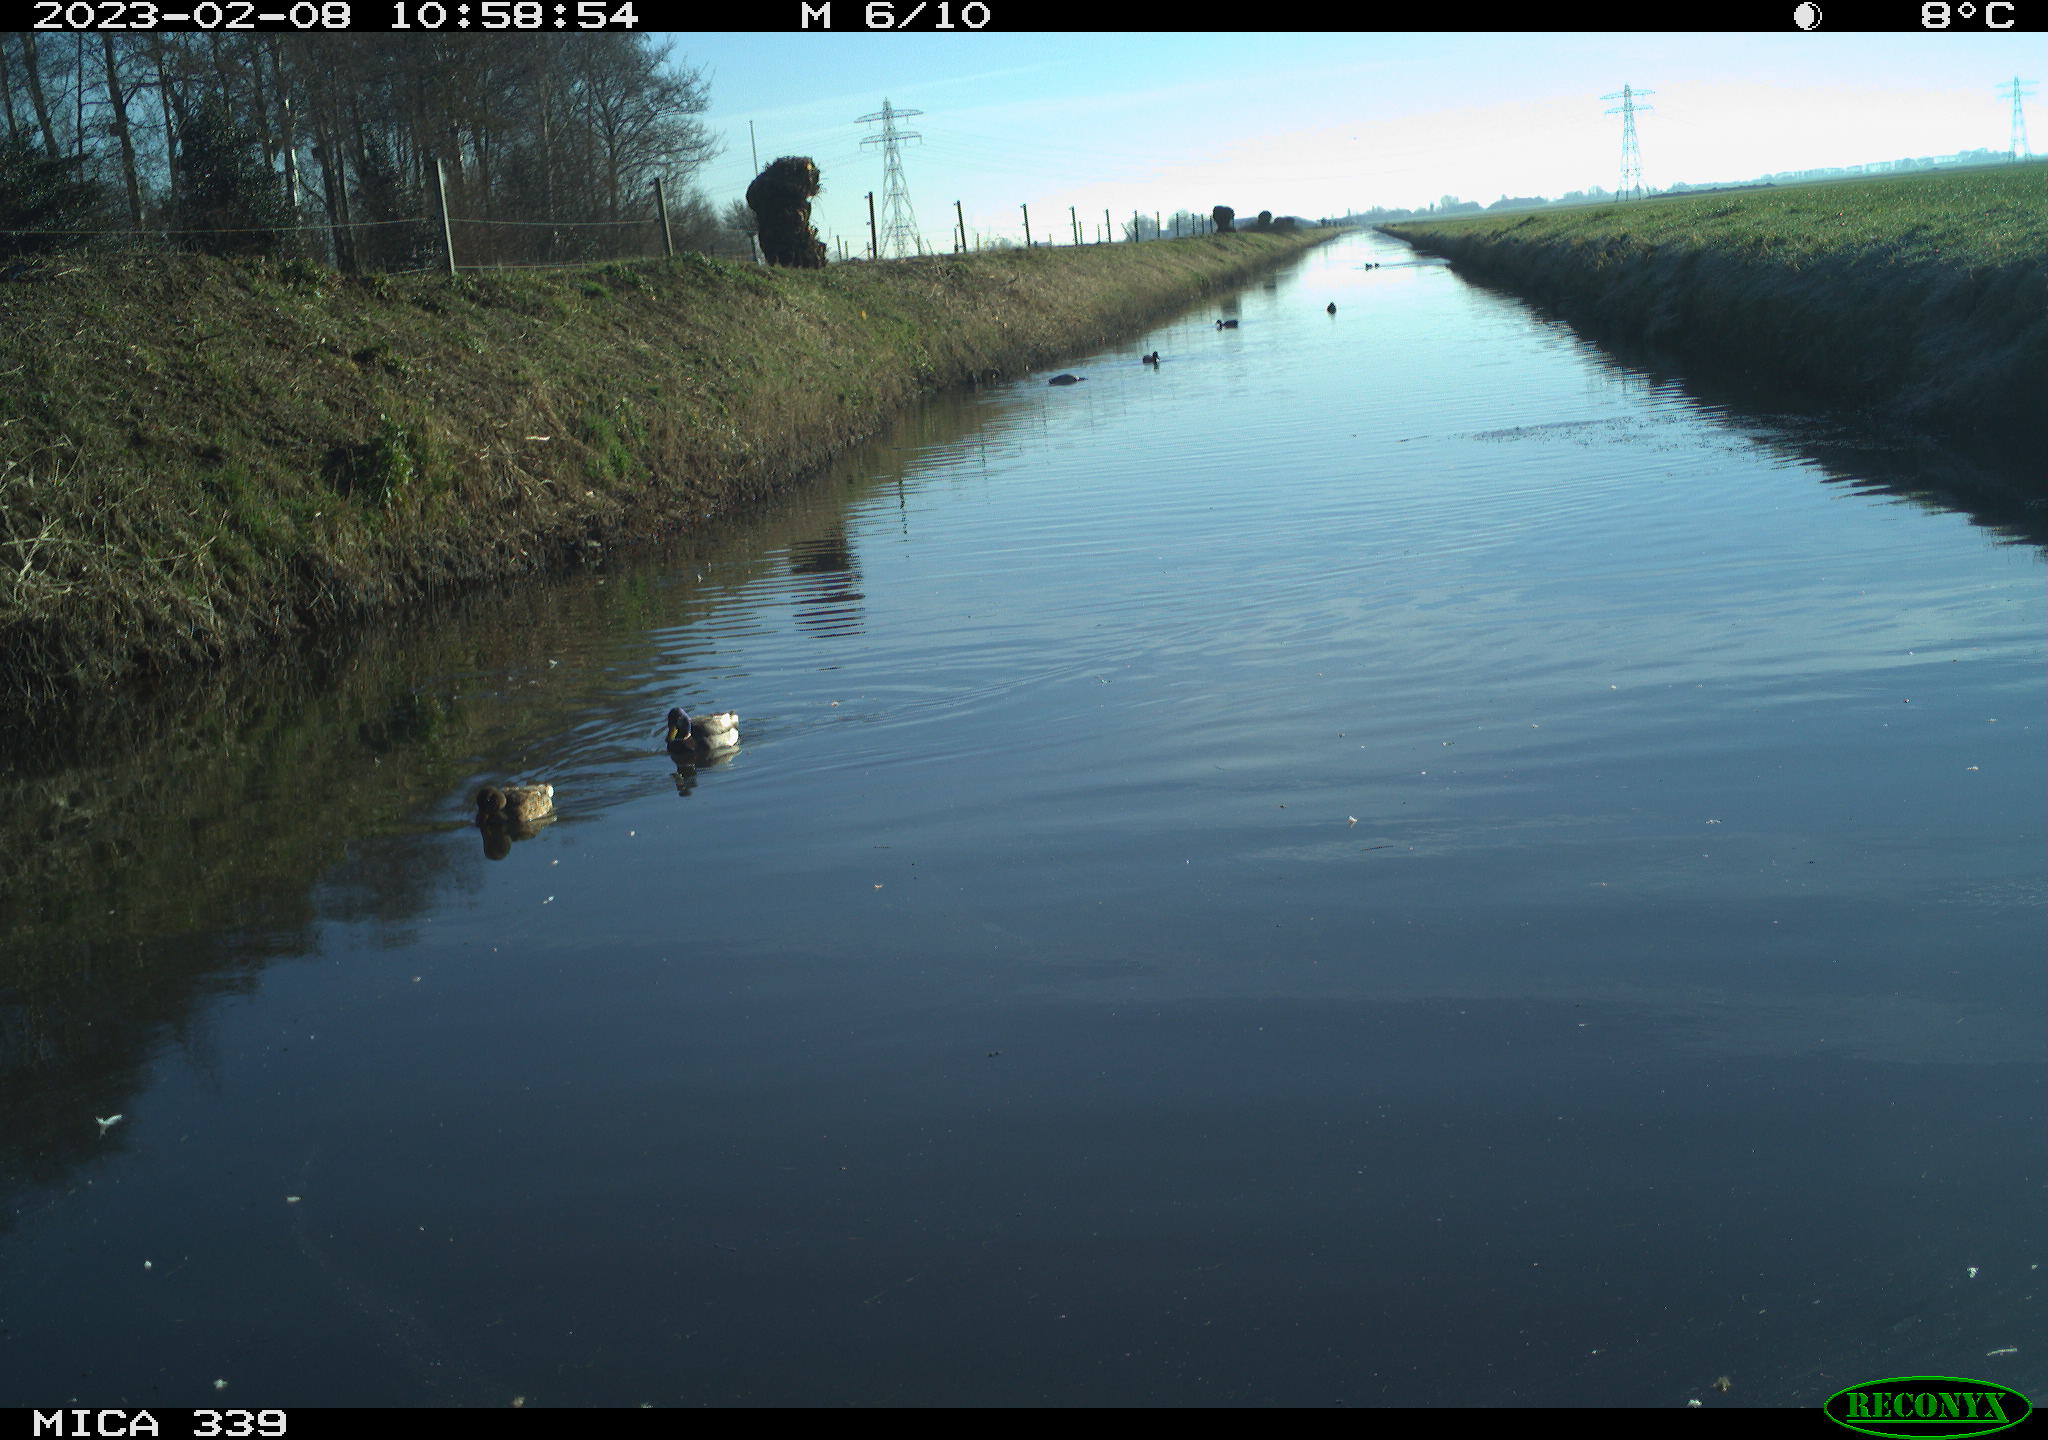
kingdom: Animalia
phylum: Chordata
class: Aves
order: Anseriformes
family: Anatidae
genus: Anas
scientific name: Anas
